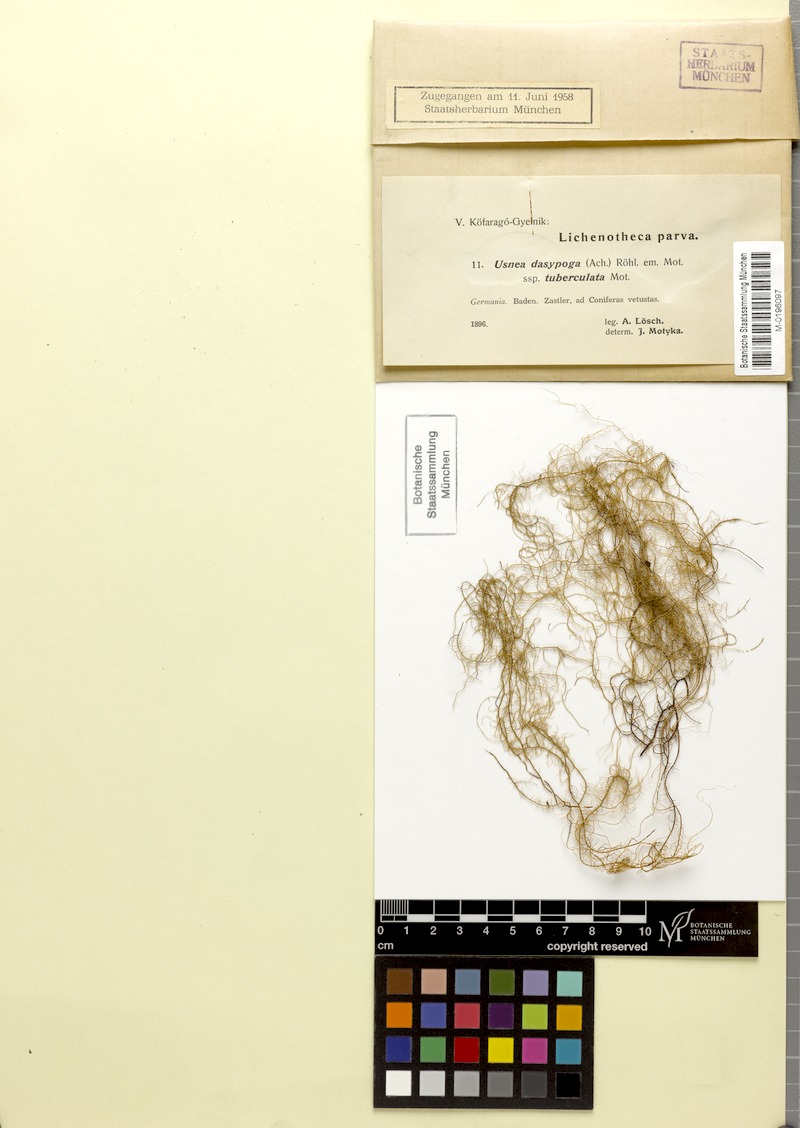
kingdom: Fungi
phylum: Ascomycota
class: Lecanoromycetes
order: Lecanorales
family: Parmeliaceae
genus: Usnea
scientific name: Usnea dasopoga
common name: Fishbone beard lichen
